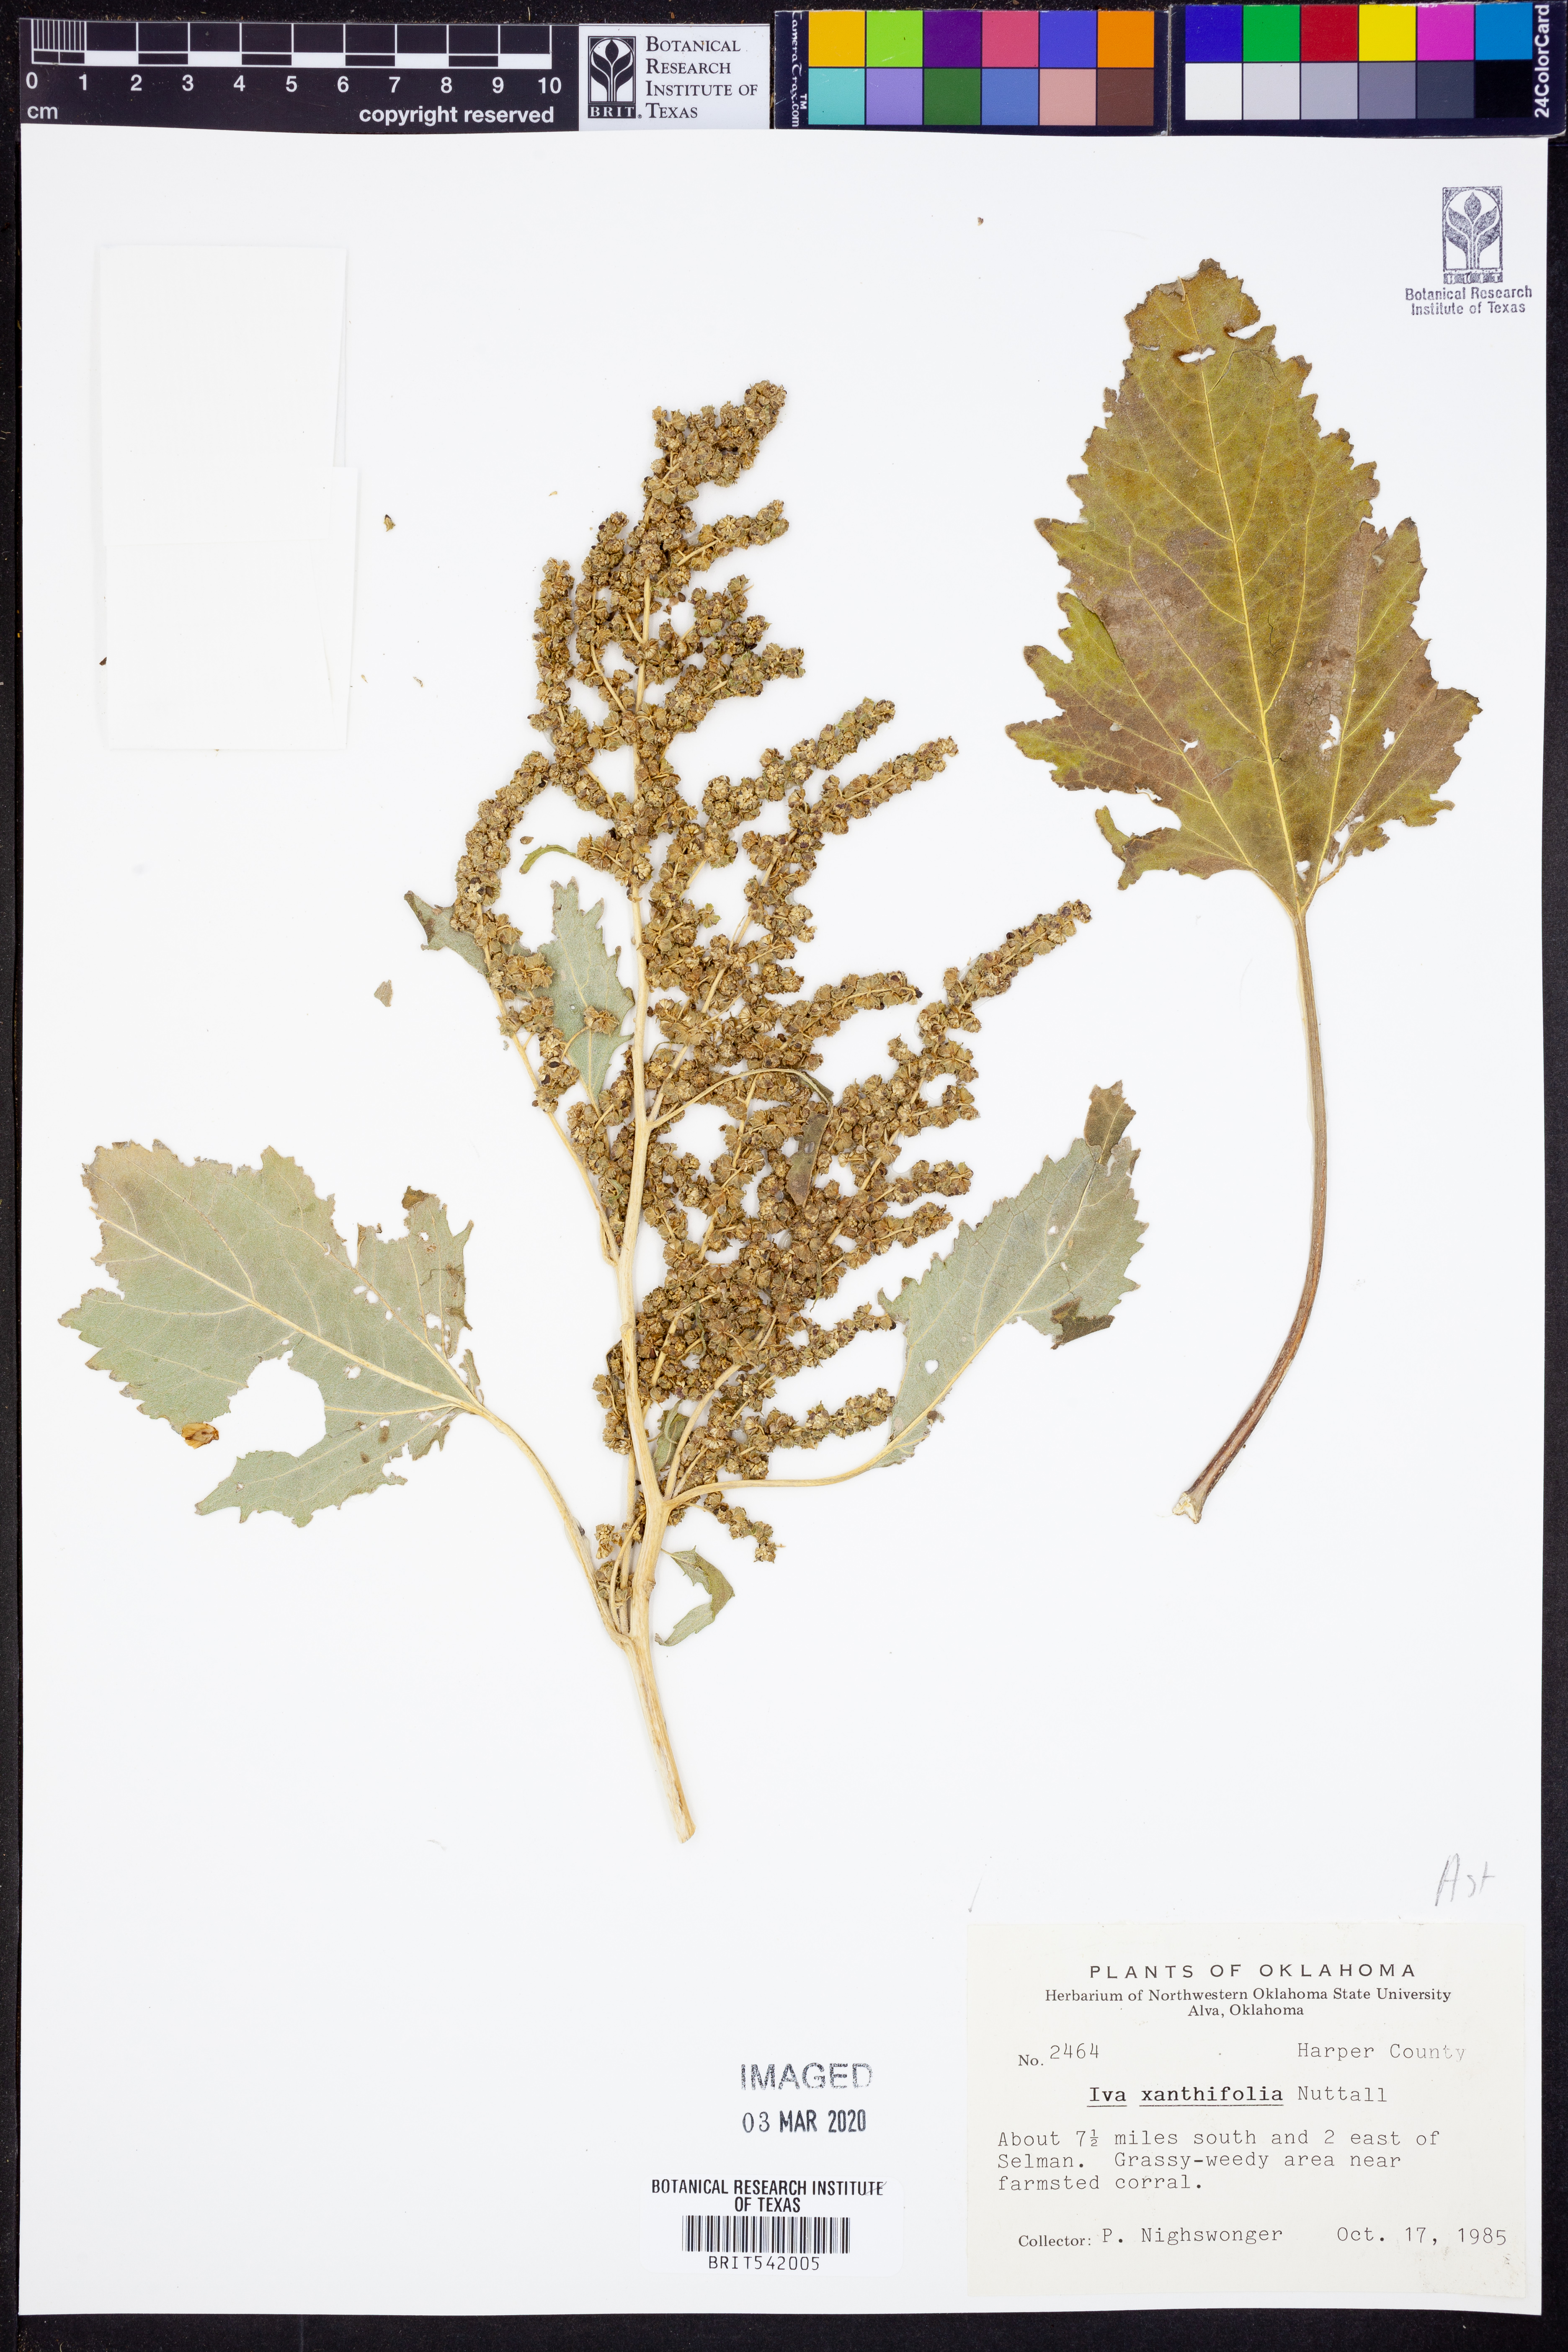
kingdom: Plantae
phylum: Tracheophyta
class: Magnoliopsida
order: Asterales
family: Asteraceae
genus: Cyclachaena
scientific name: Cyclachaena xanthiifolia
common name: Giant sumpweed
